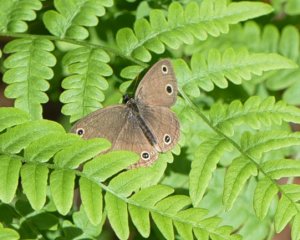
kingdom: Animalia
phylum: Arthropoda
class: Insecta
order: Lepidoptera
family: Nymphalidae
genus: Euptychia
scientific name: Euptychia cymela
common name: Little Wood Satyr
